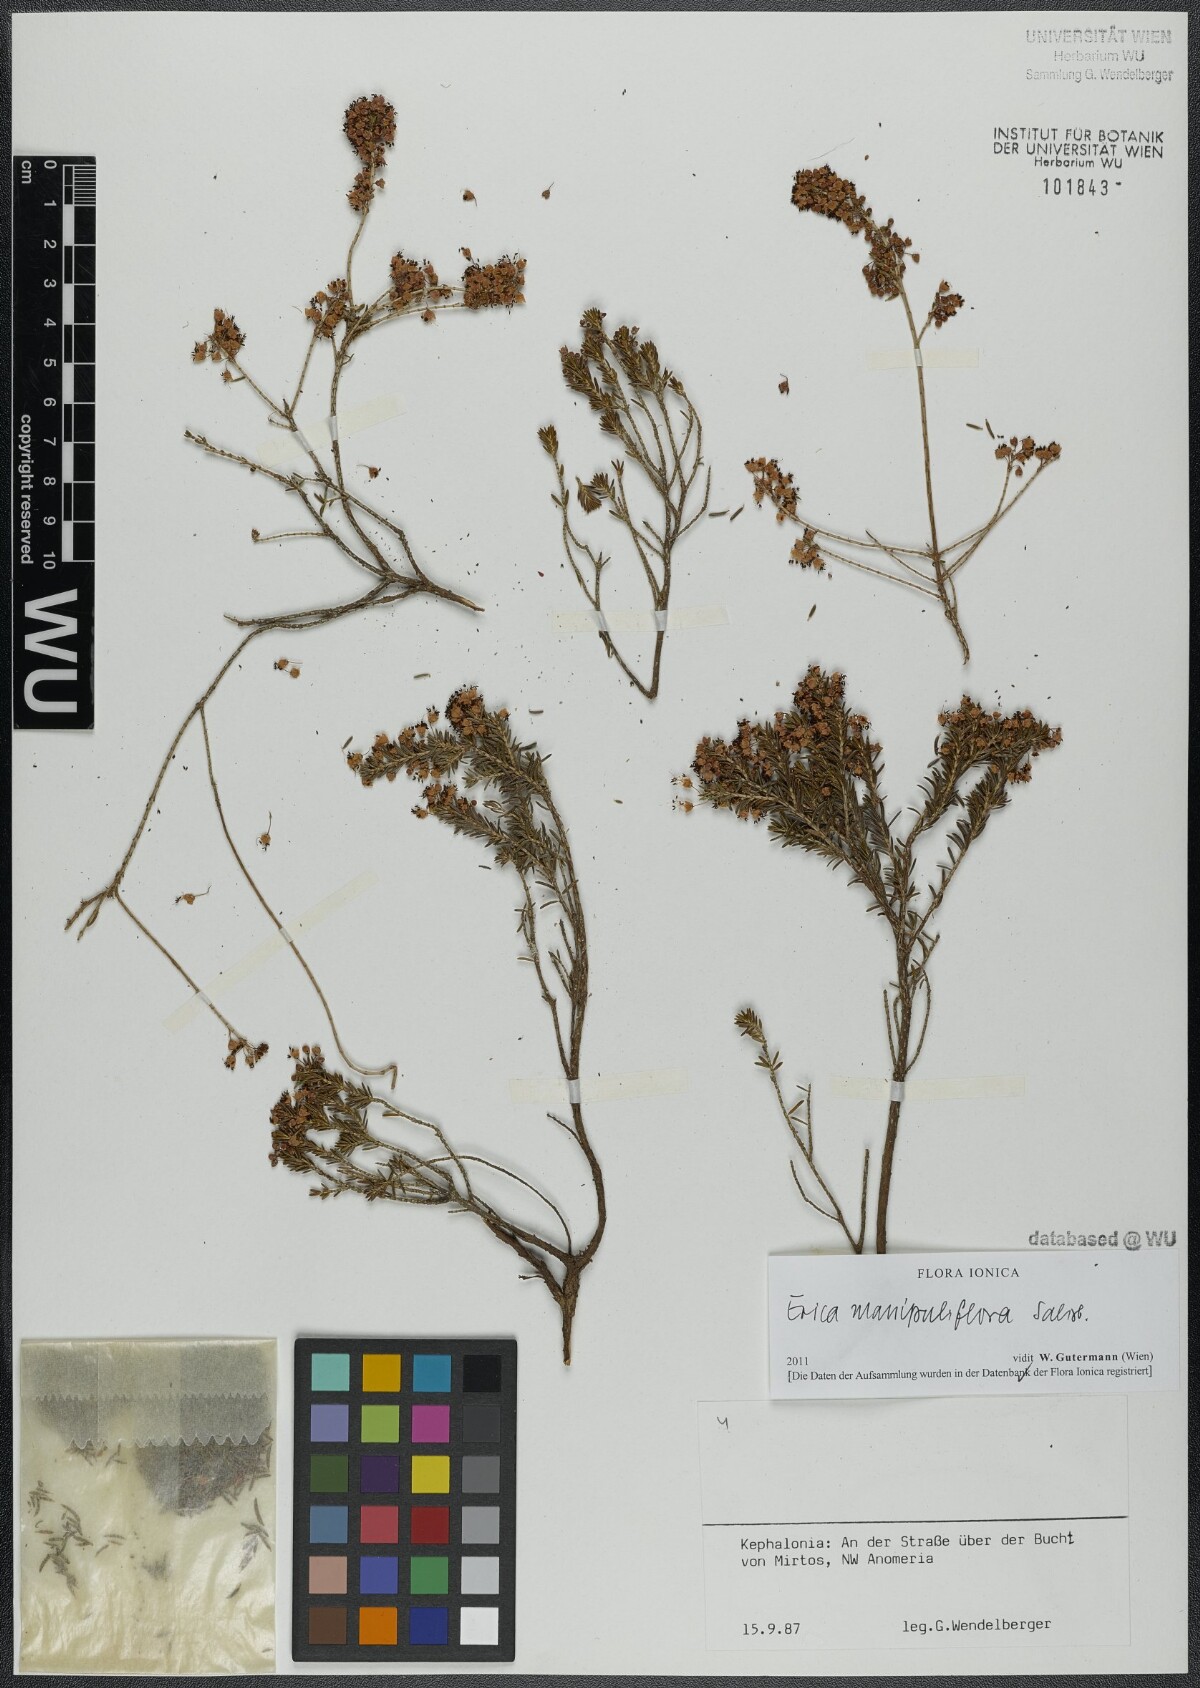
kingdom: Plantae
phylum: Tracheophyta
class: Magnoliopsida
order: Ericales
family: Ericaceae
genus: Erica
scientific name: Erica manipuliflora
